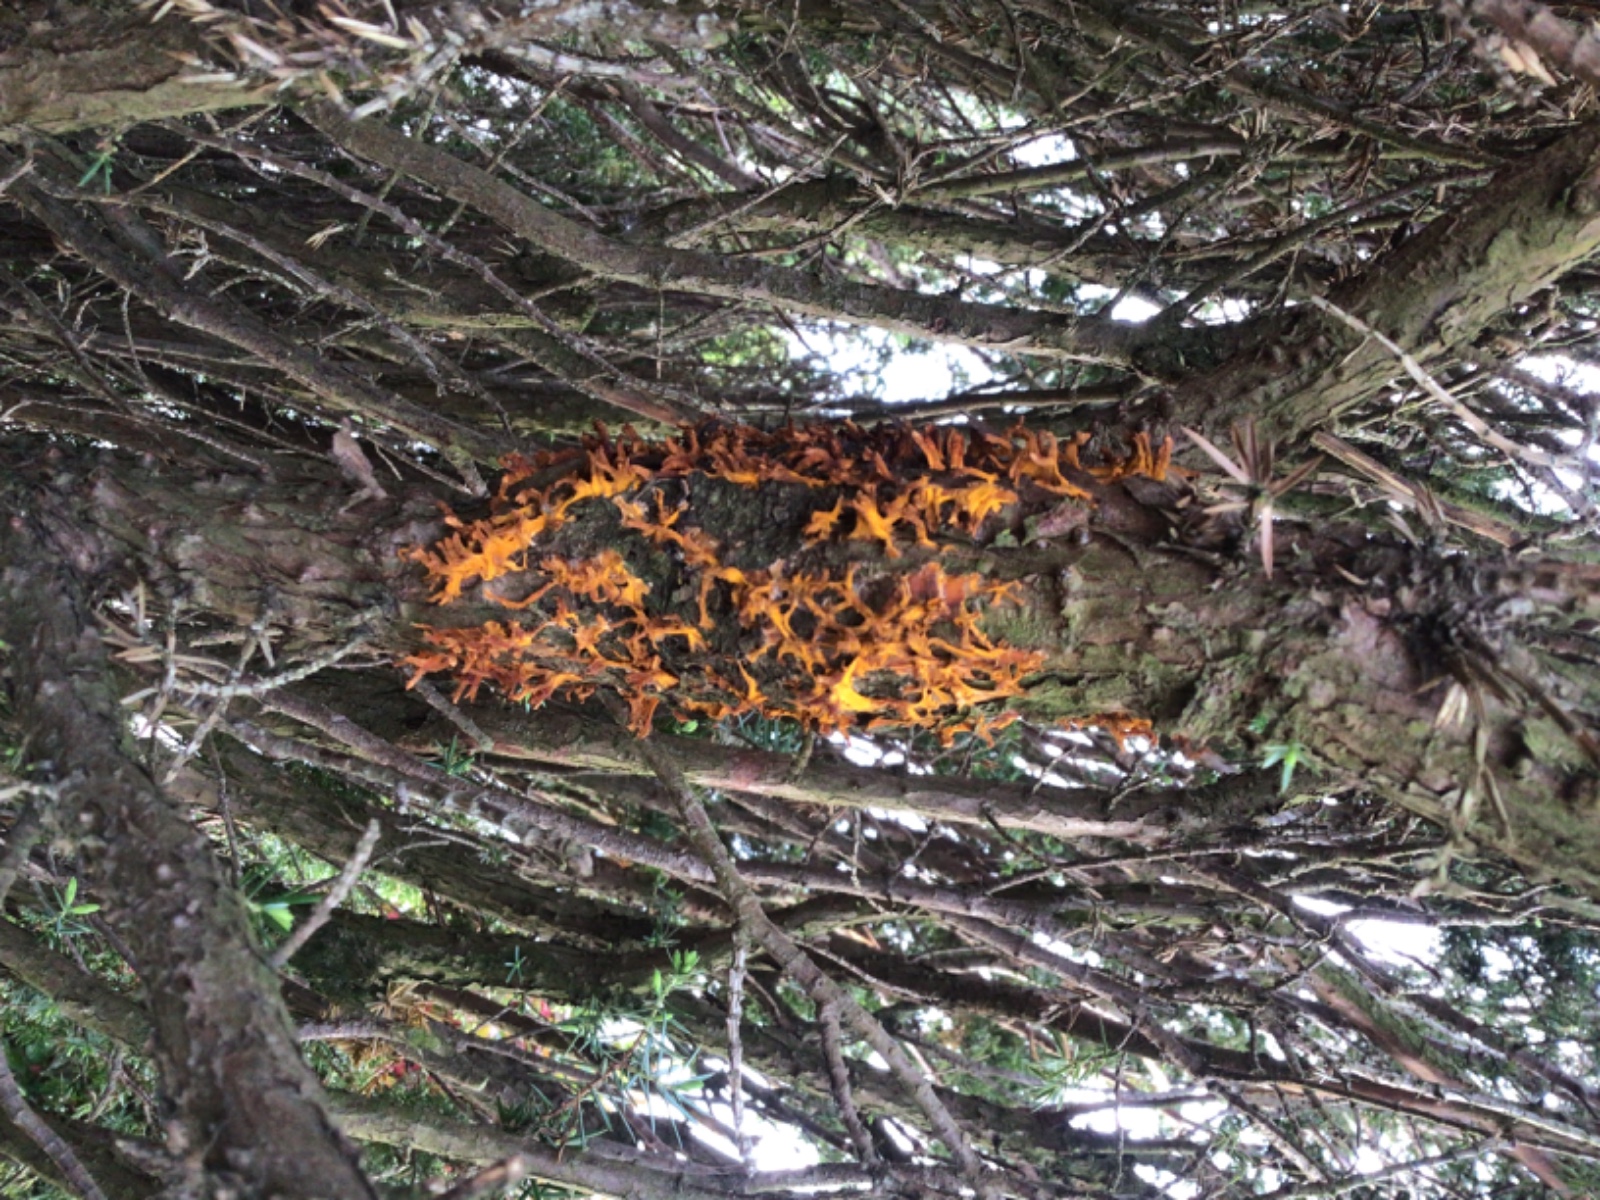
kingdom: Fungi
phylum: Basidiomycota
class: Pucciniomycetes
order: Pucciniales
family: Gymnosporangiaceae
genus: Gymnosporangium
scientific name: Gymnosporangium clavariiforme
